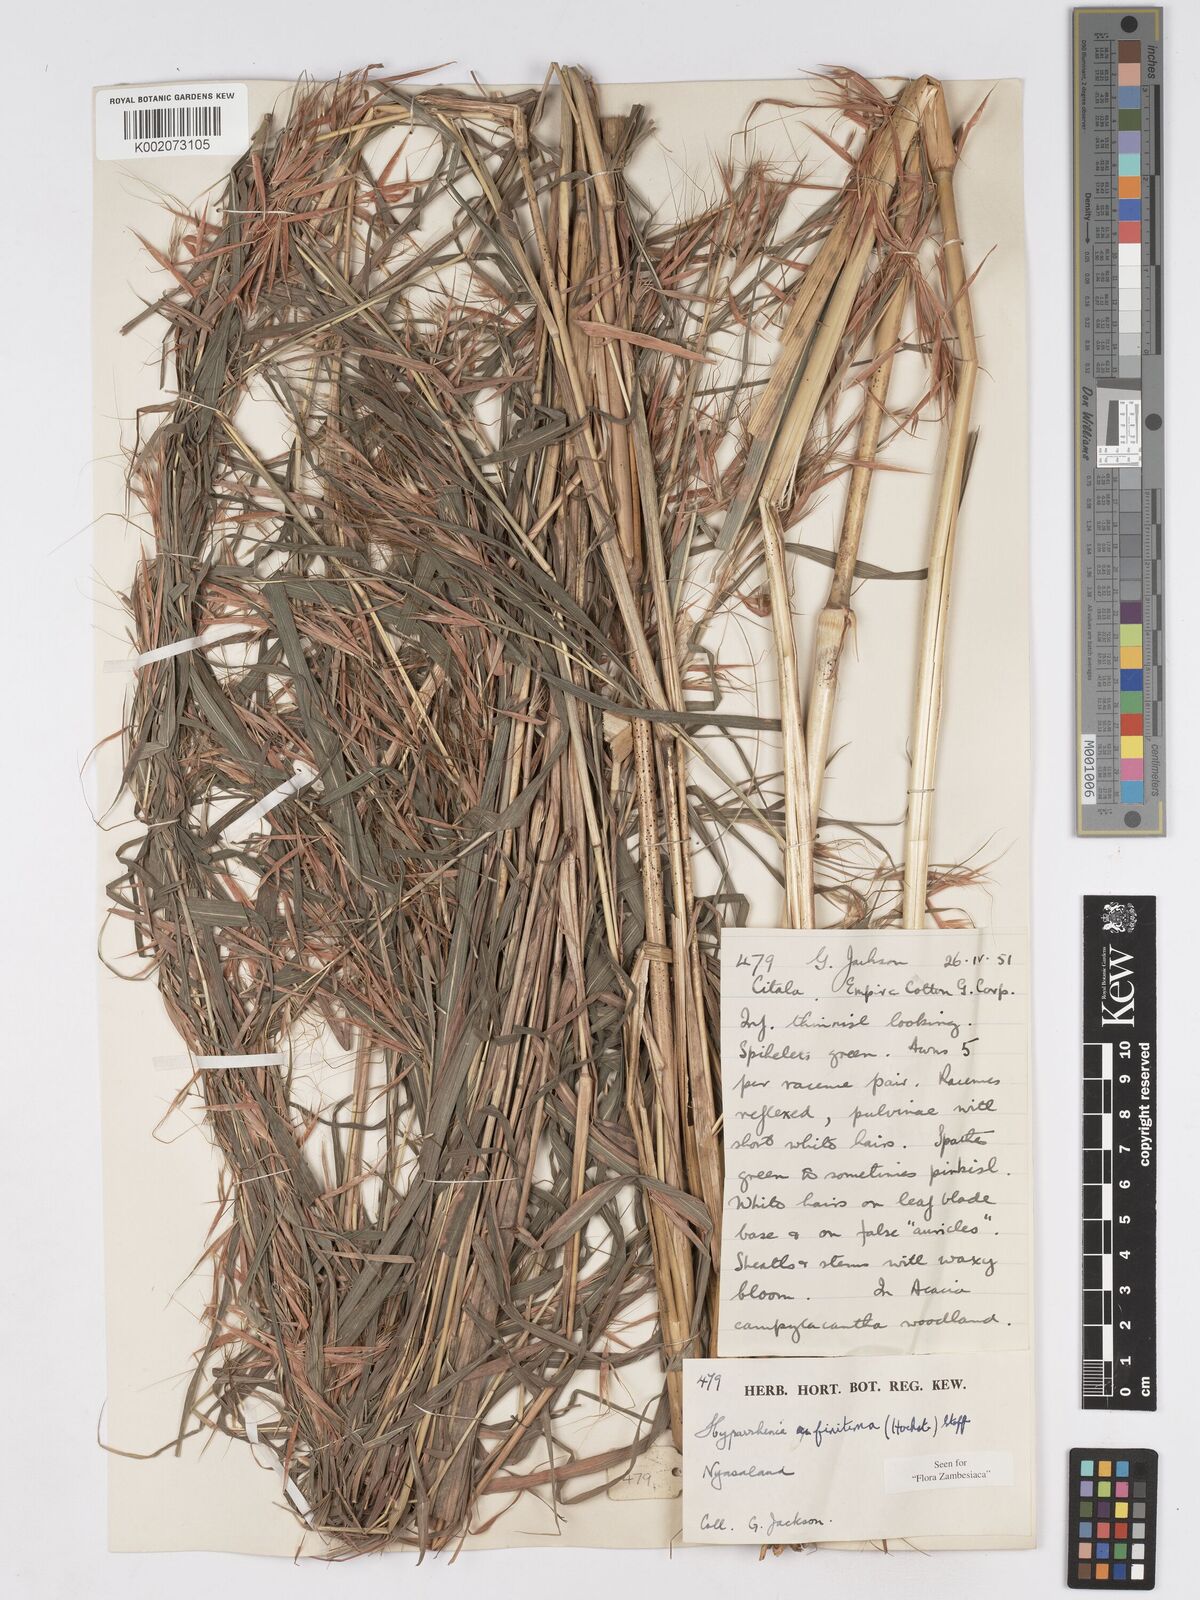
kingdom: Plantae
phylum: Tracheophyta
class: Liliopsida
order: Poales
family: Poaceae
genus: Hyparrhenia
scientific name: Hyparrhenia finitima
